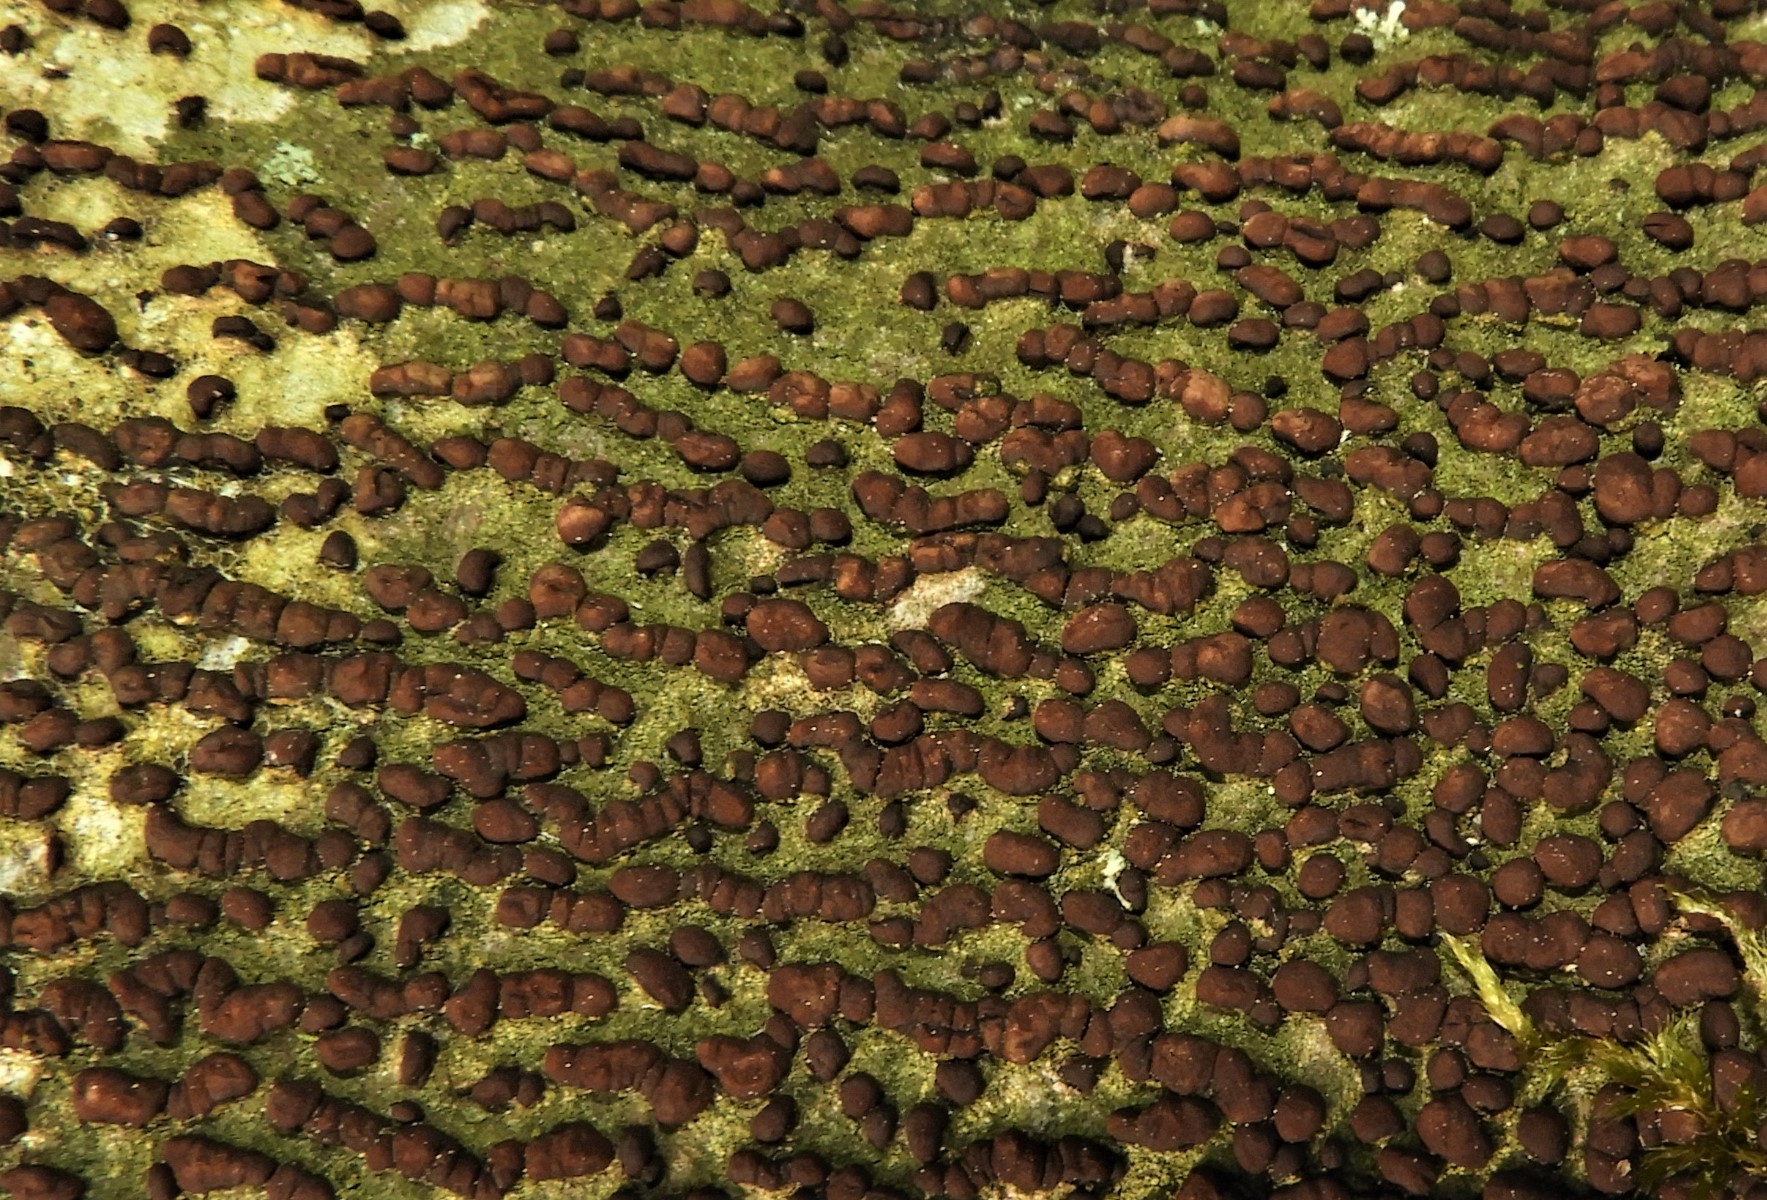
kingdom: Fungi
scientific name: Fungi
